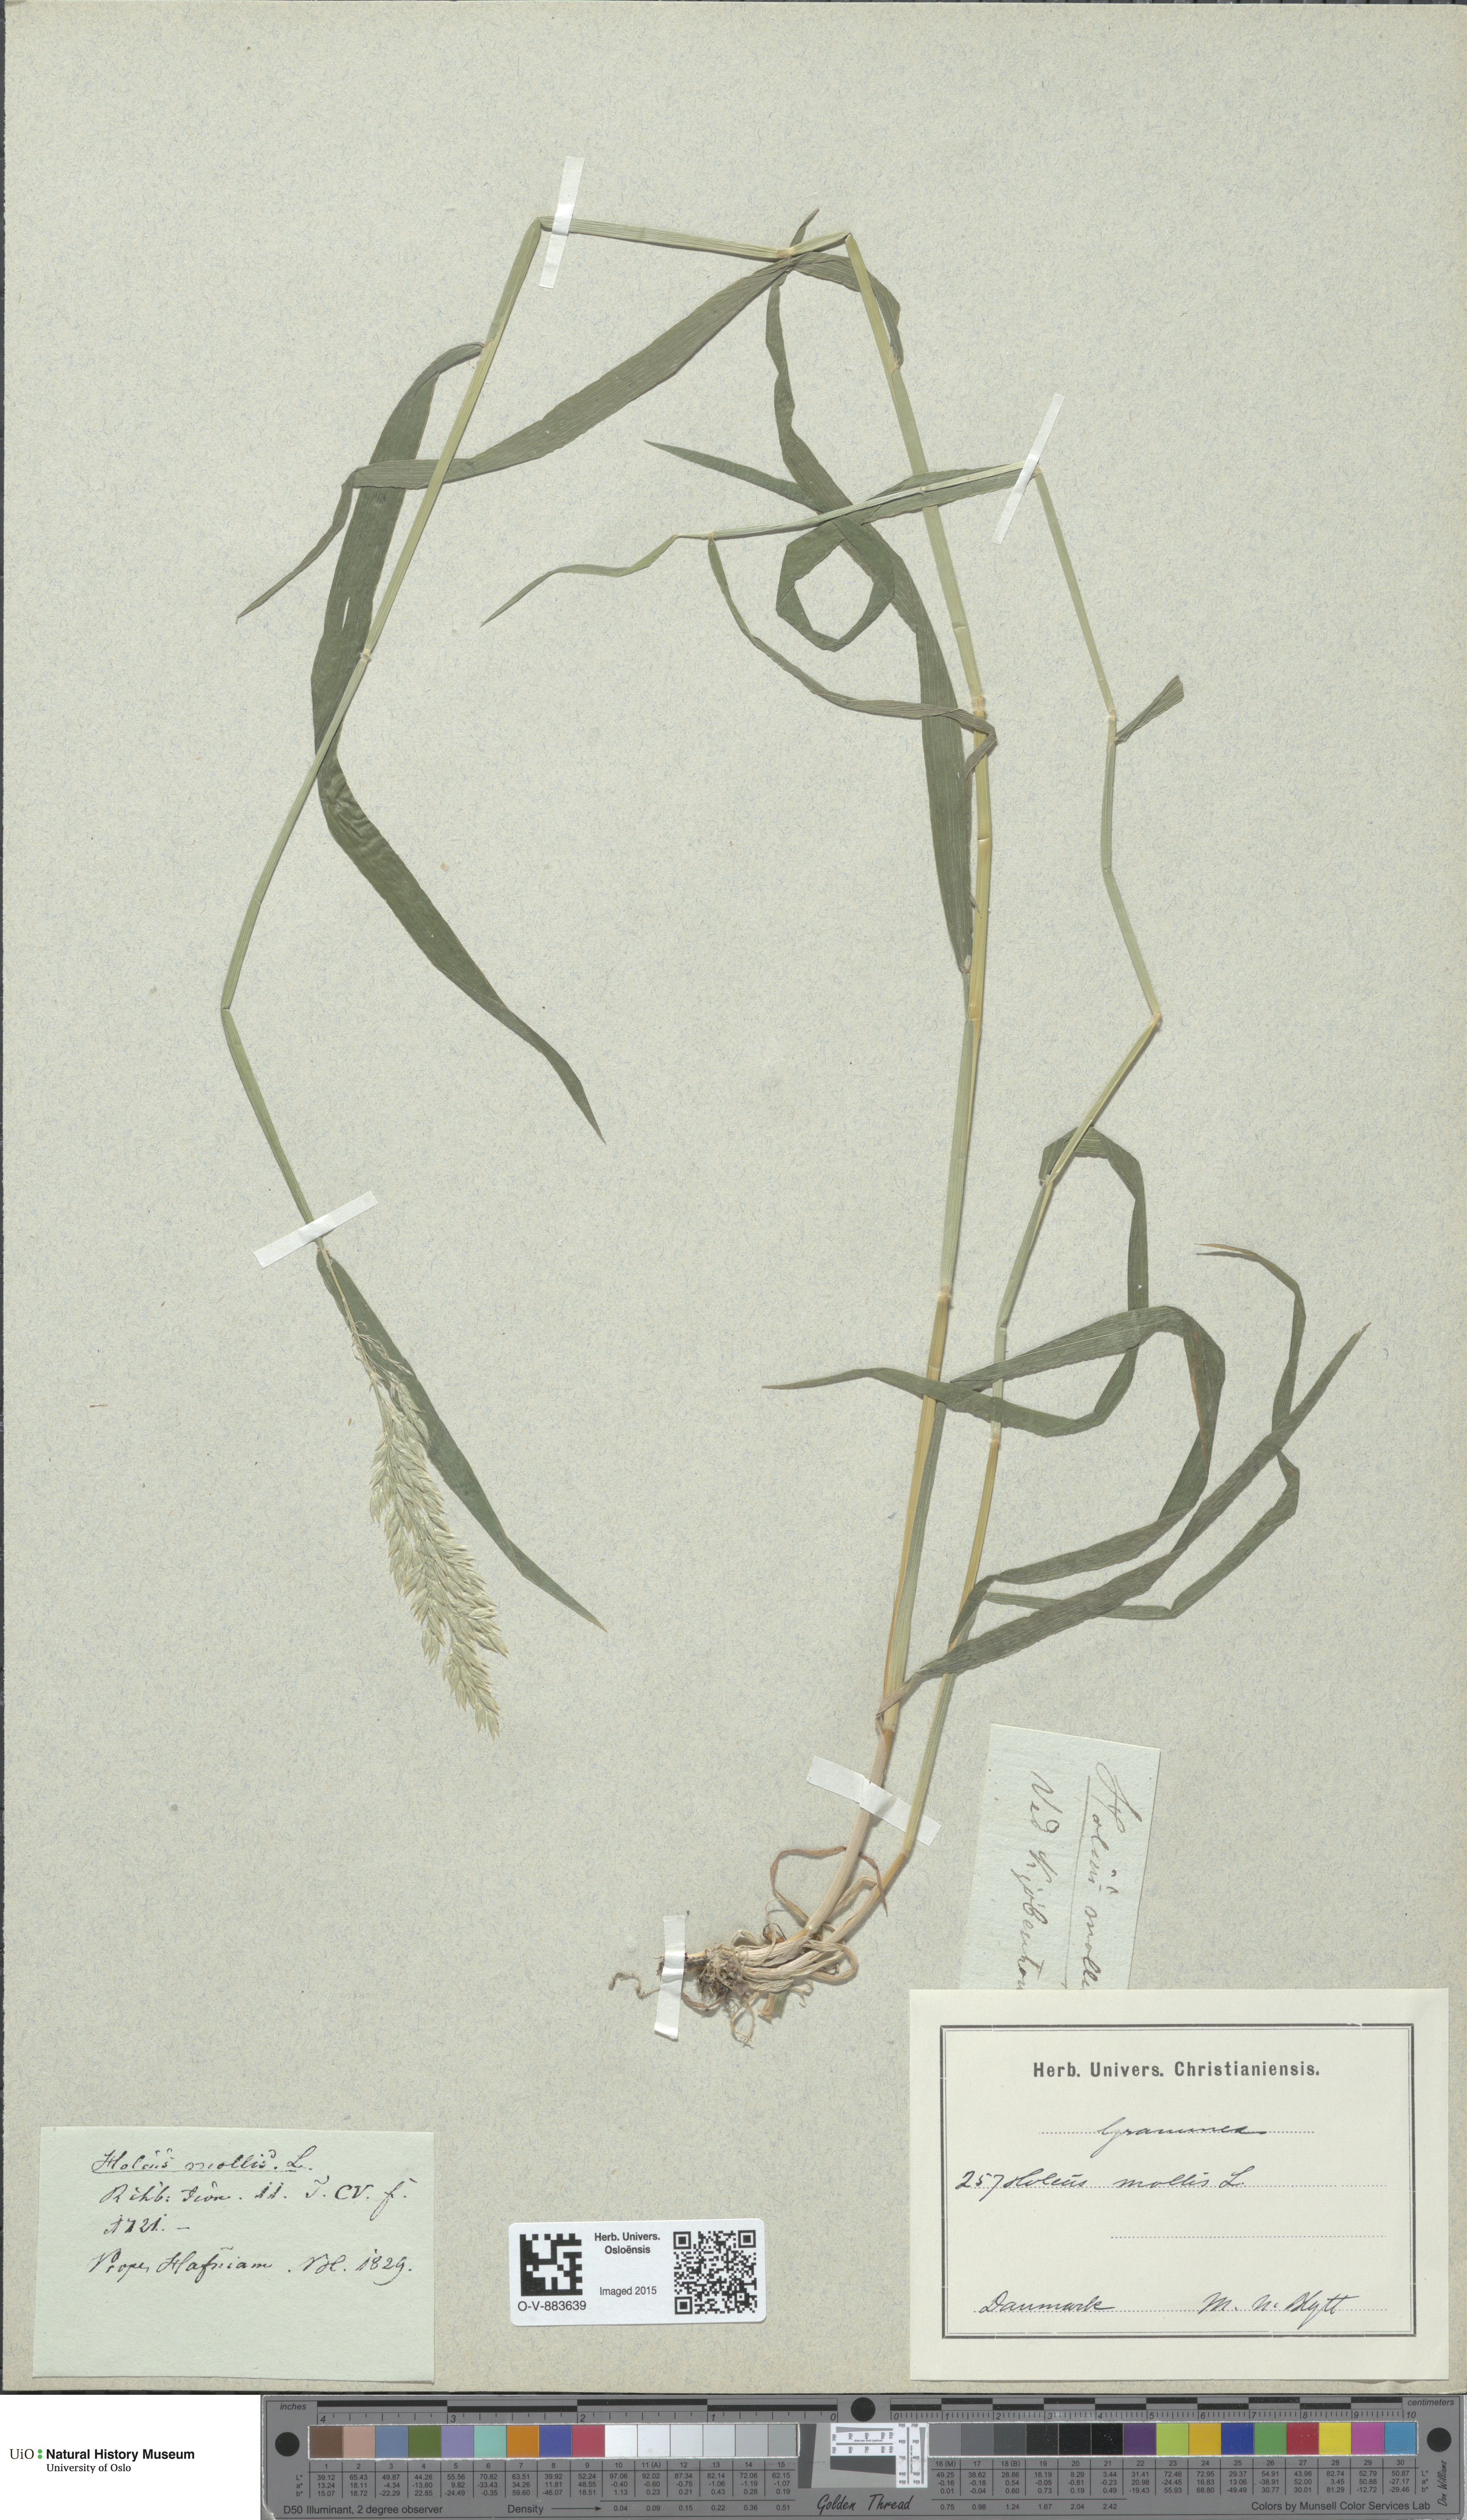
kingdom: Plantae
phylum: Tracheophyta
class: Liliopsida
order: Poales
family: Poaceae
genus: Holcus
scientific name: Holcus mollis
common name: Creeping velvetgrass
